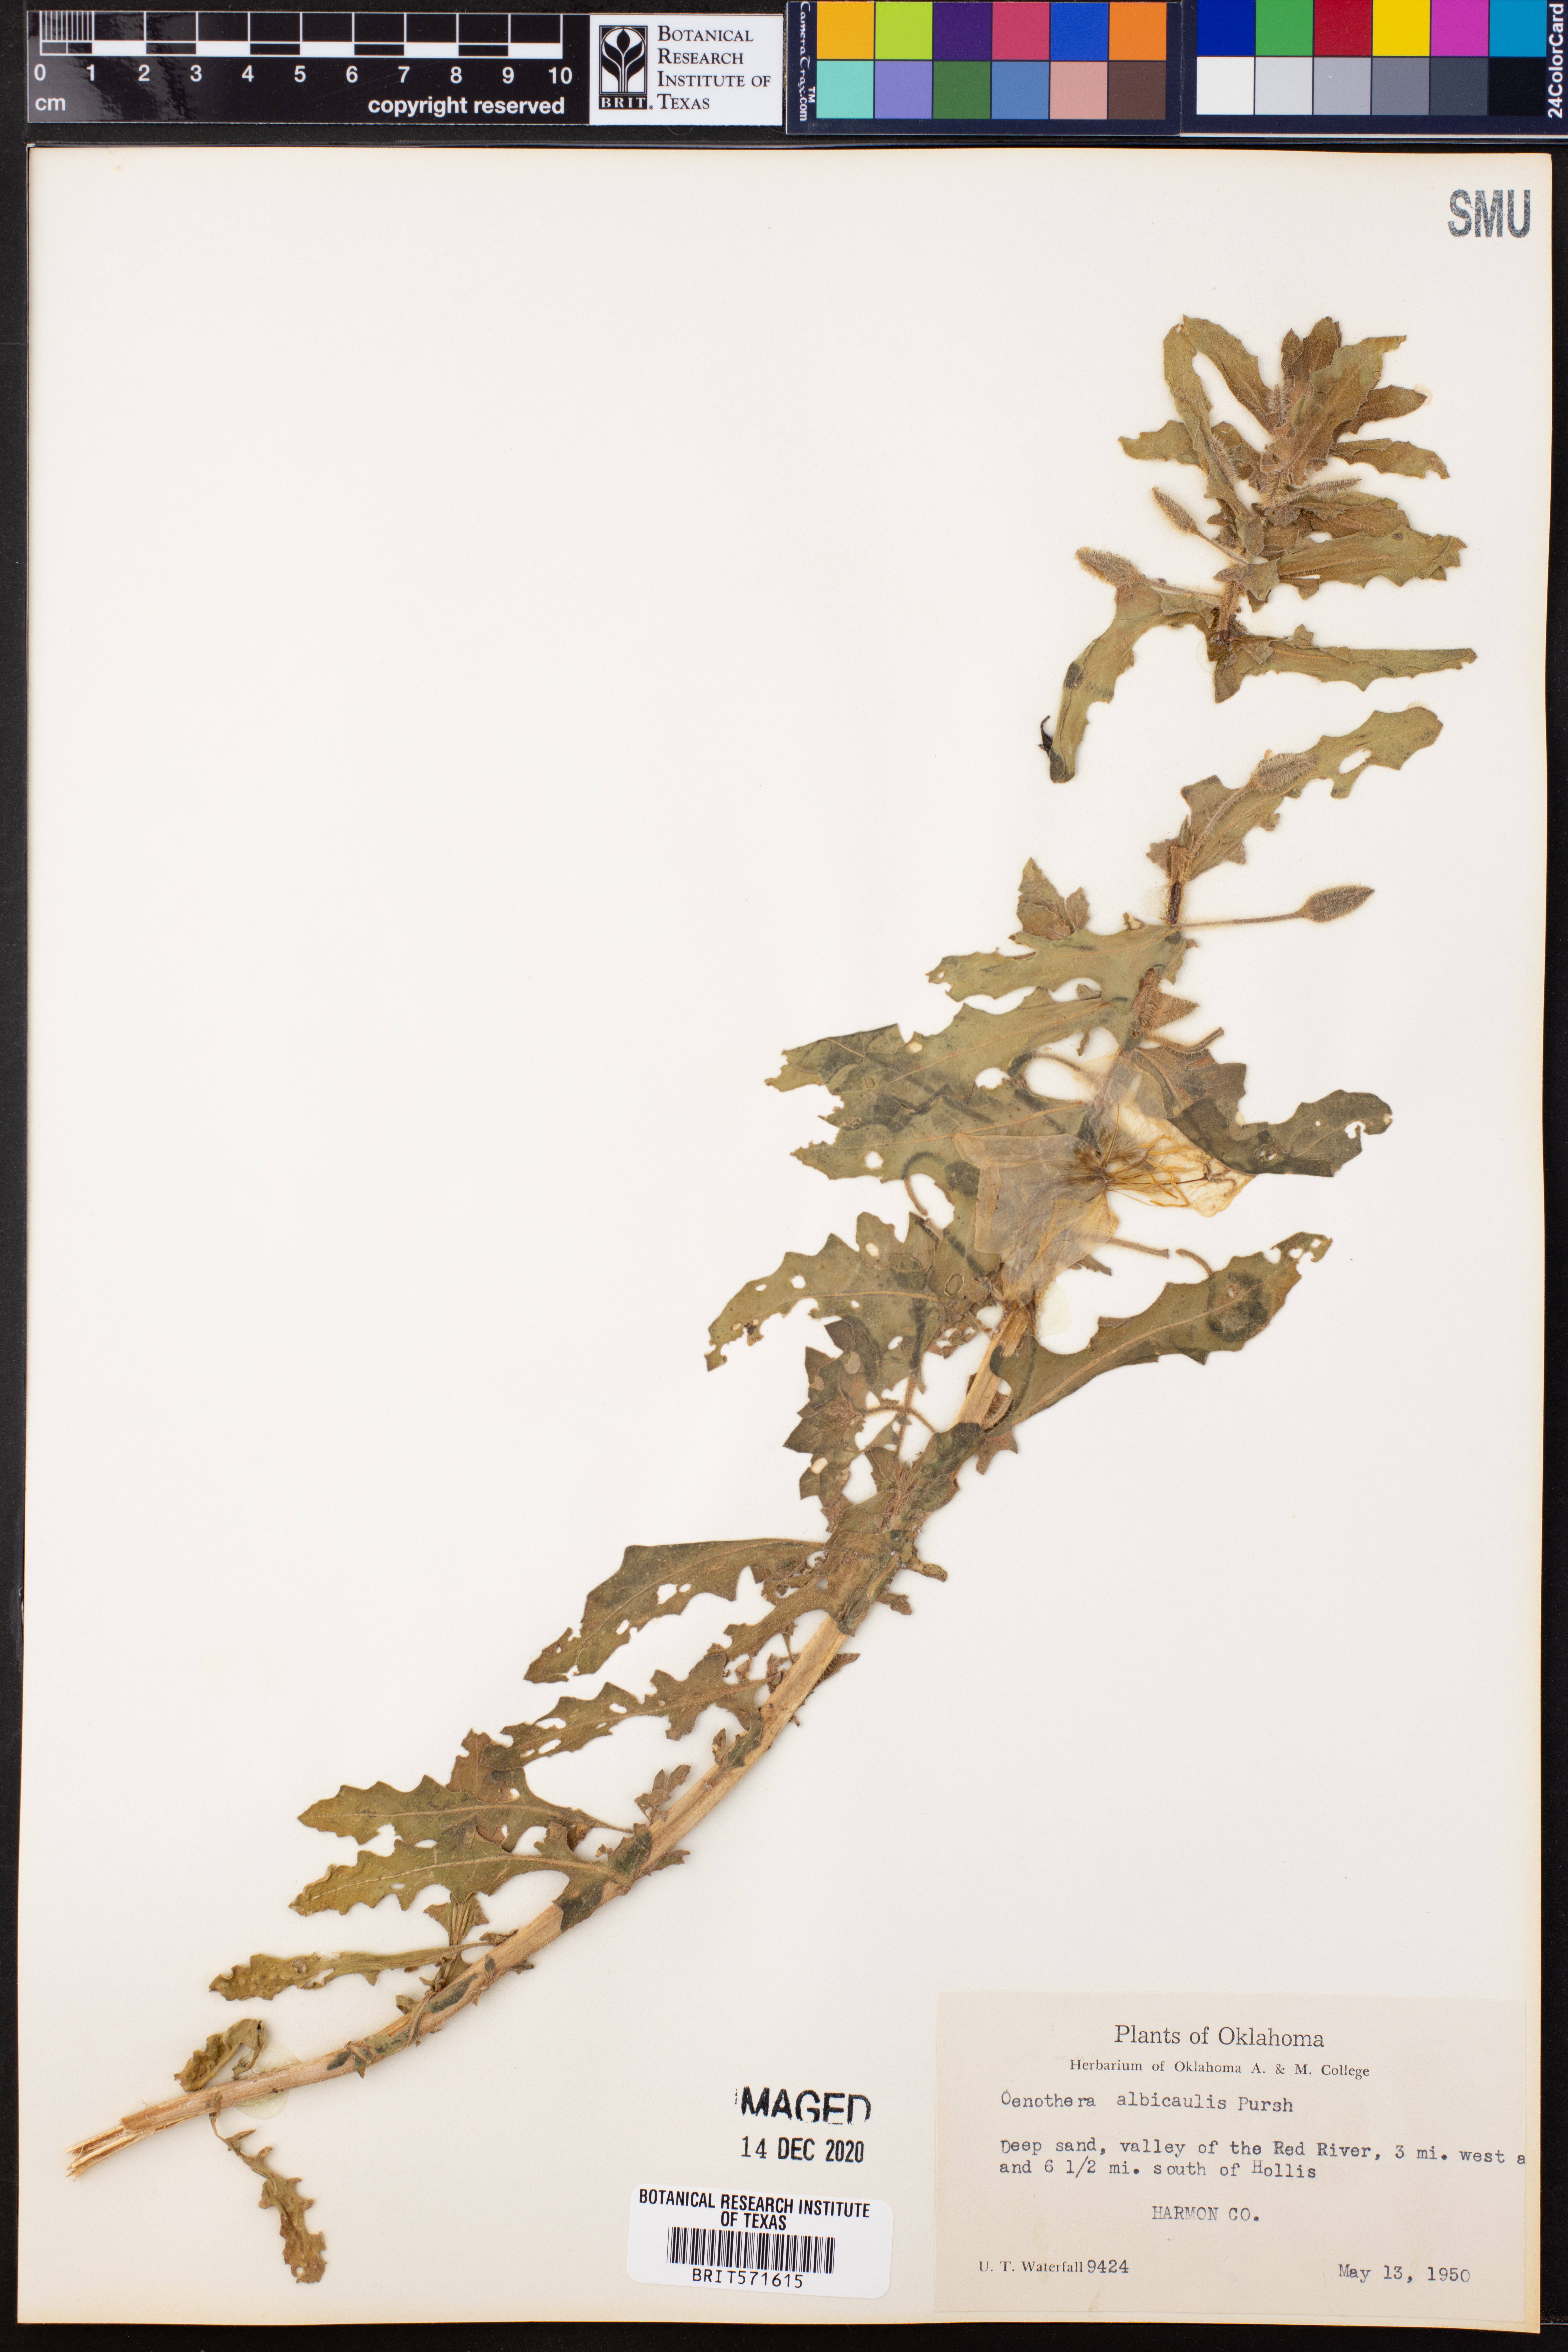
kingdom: Plantae
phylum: Tracheophyta
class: Magnoliopsida
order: Myrtales
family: Onagraceae
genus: Oenothera
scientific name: Oenothera albicaulis
